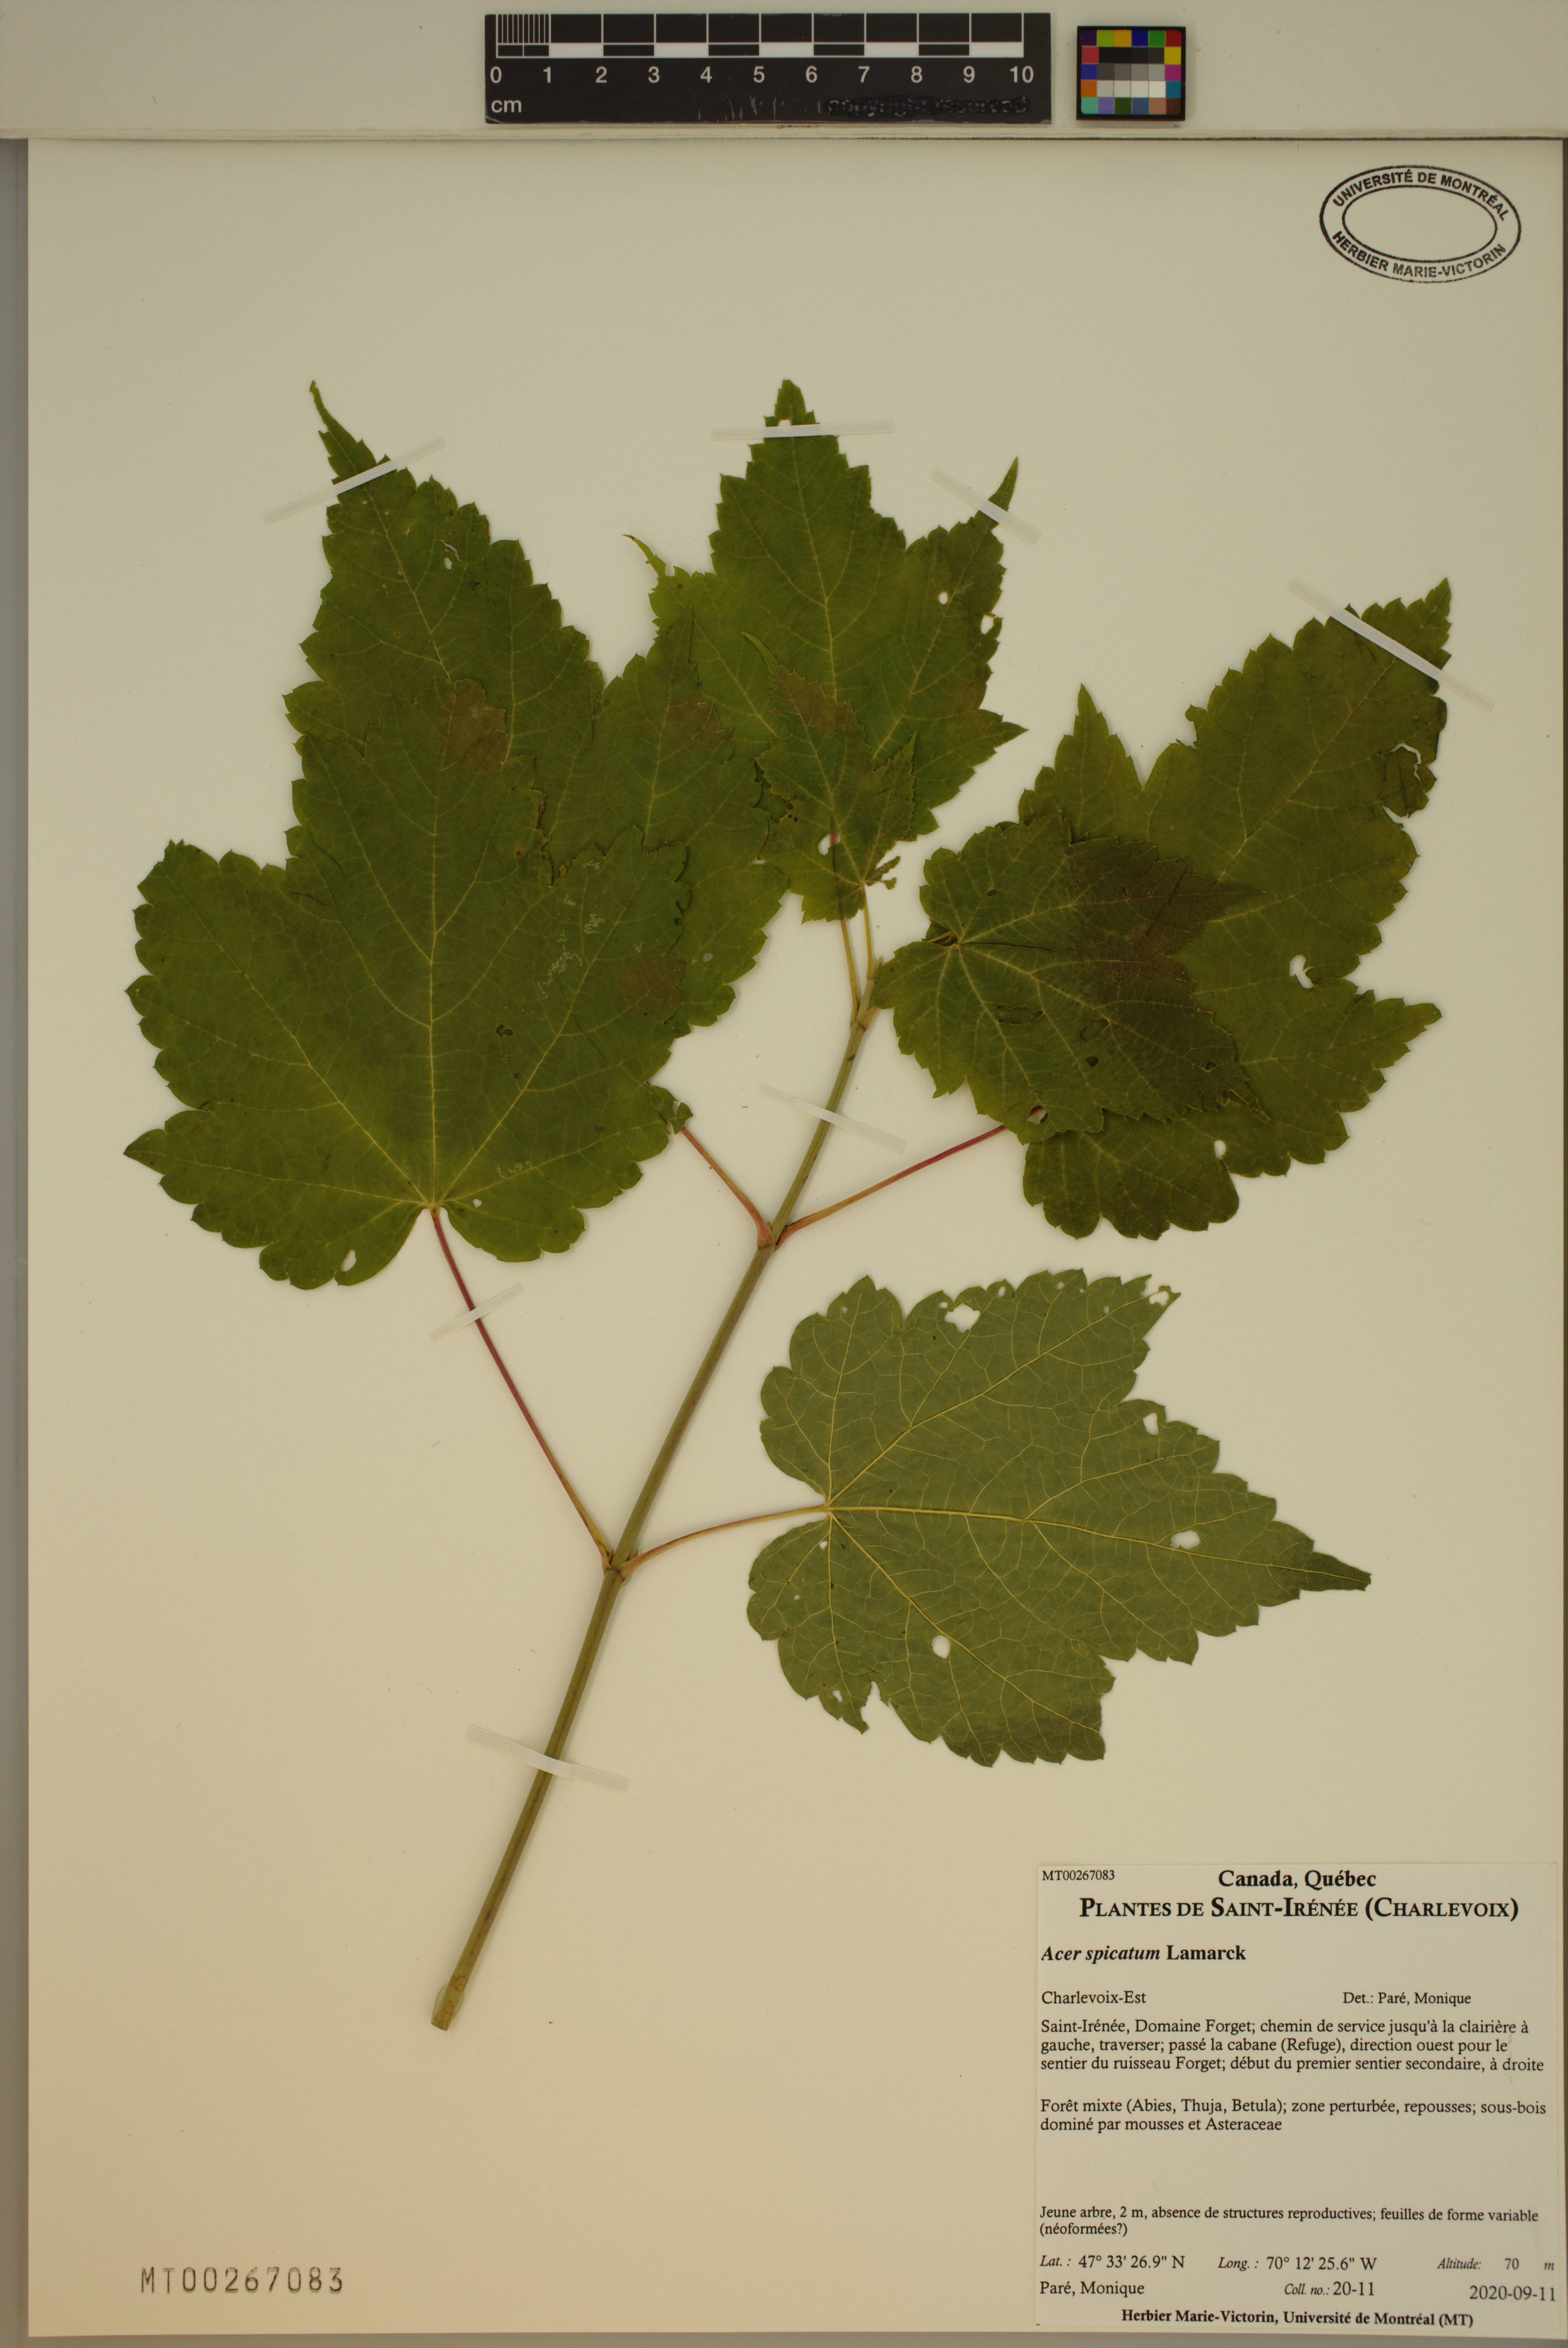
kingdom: Plantae
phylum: Tracheophyta
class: Magnoliopsida
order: Sapindales
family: Sapindaceae
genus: Acer
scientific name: Acer spicatum
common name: Mountain maple
